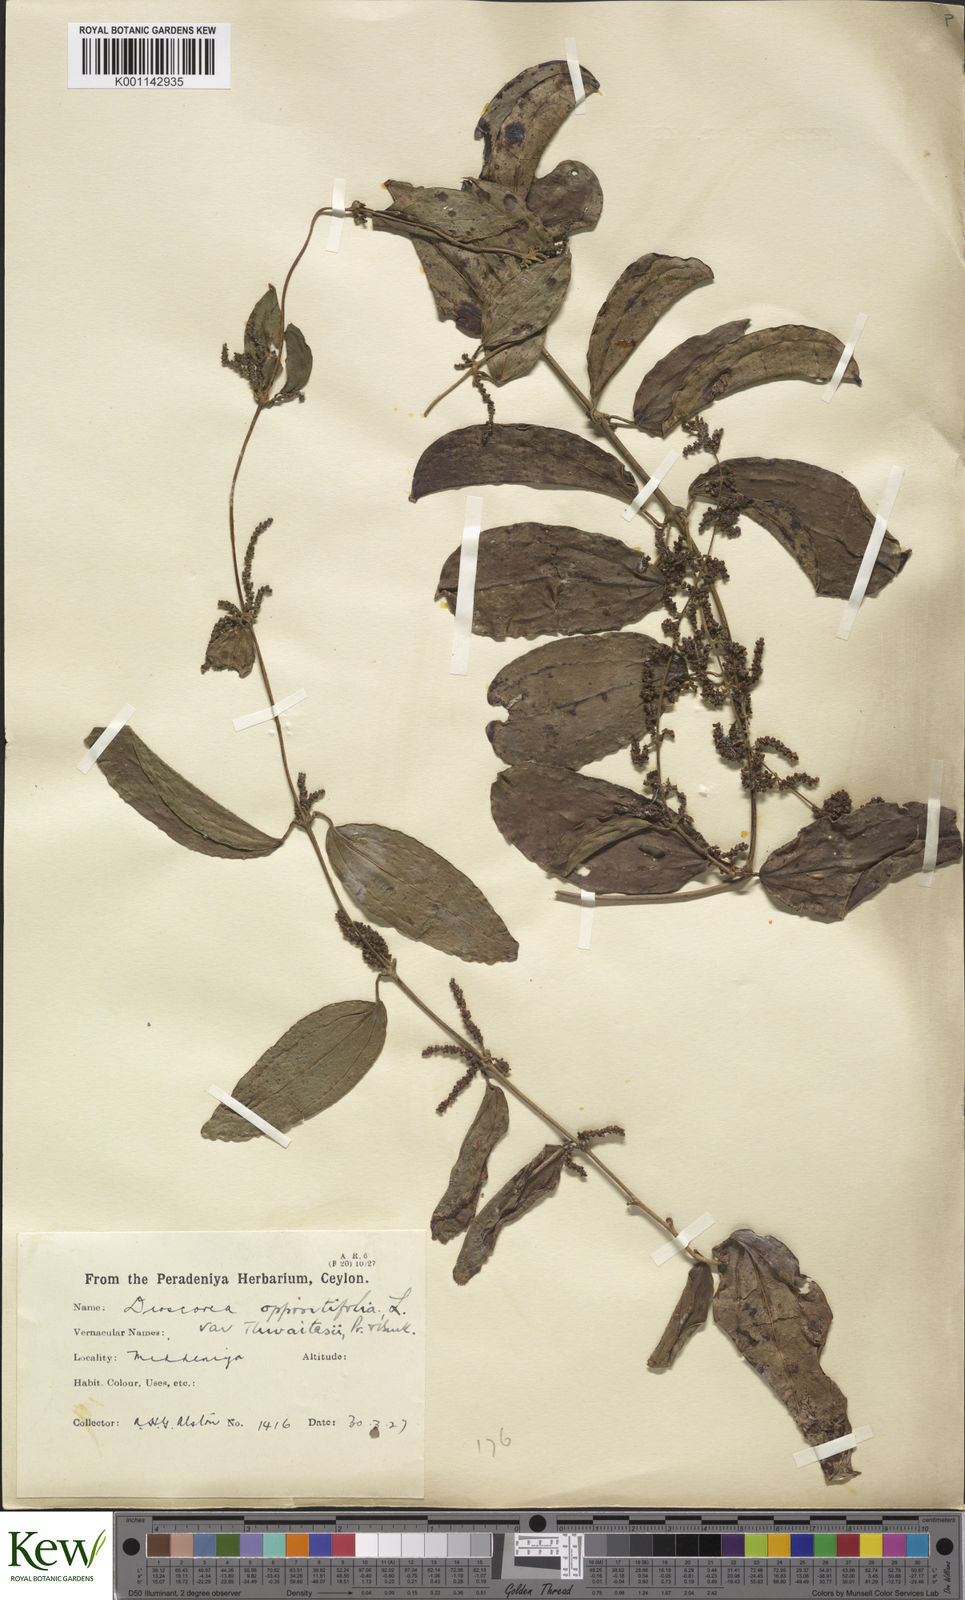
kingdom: Plantae
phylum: Tracheophyta
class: Liliopsida
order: Dioscoreales
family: Dioscoreaceae
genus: Dioscorea
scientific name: Dioscorea oppositifolia
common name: Chinese yam
